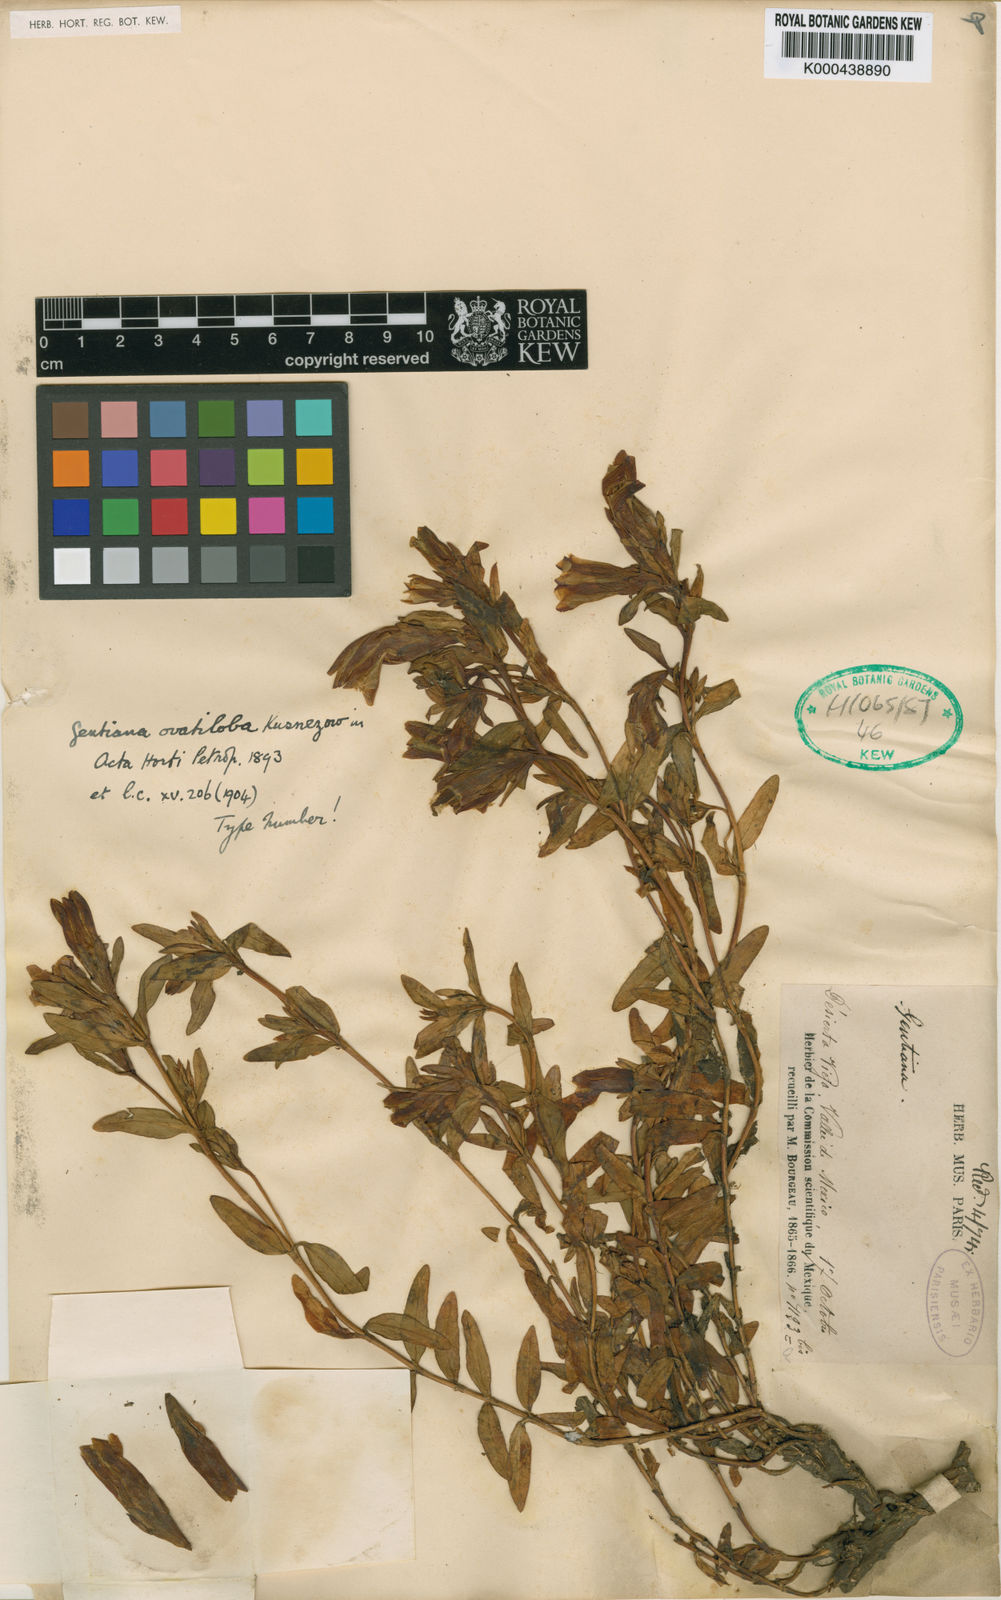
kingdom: Plantae
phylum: Tracheophyta
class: Magnoliopsida
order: Gentianales
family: Gentianaceae
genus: Gentiana
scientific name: Gentiana ovatiloba
